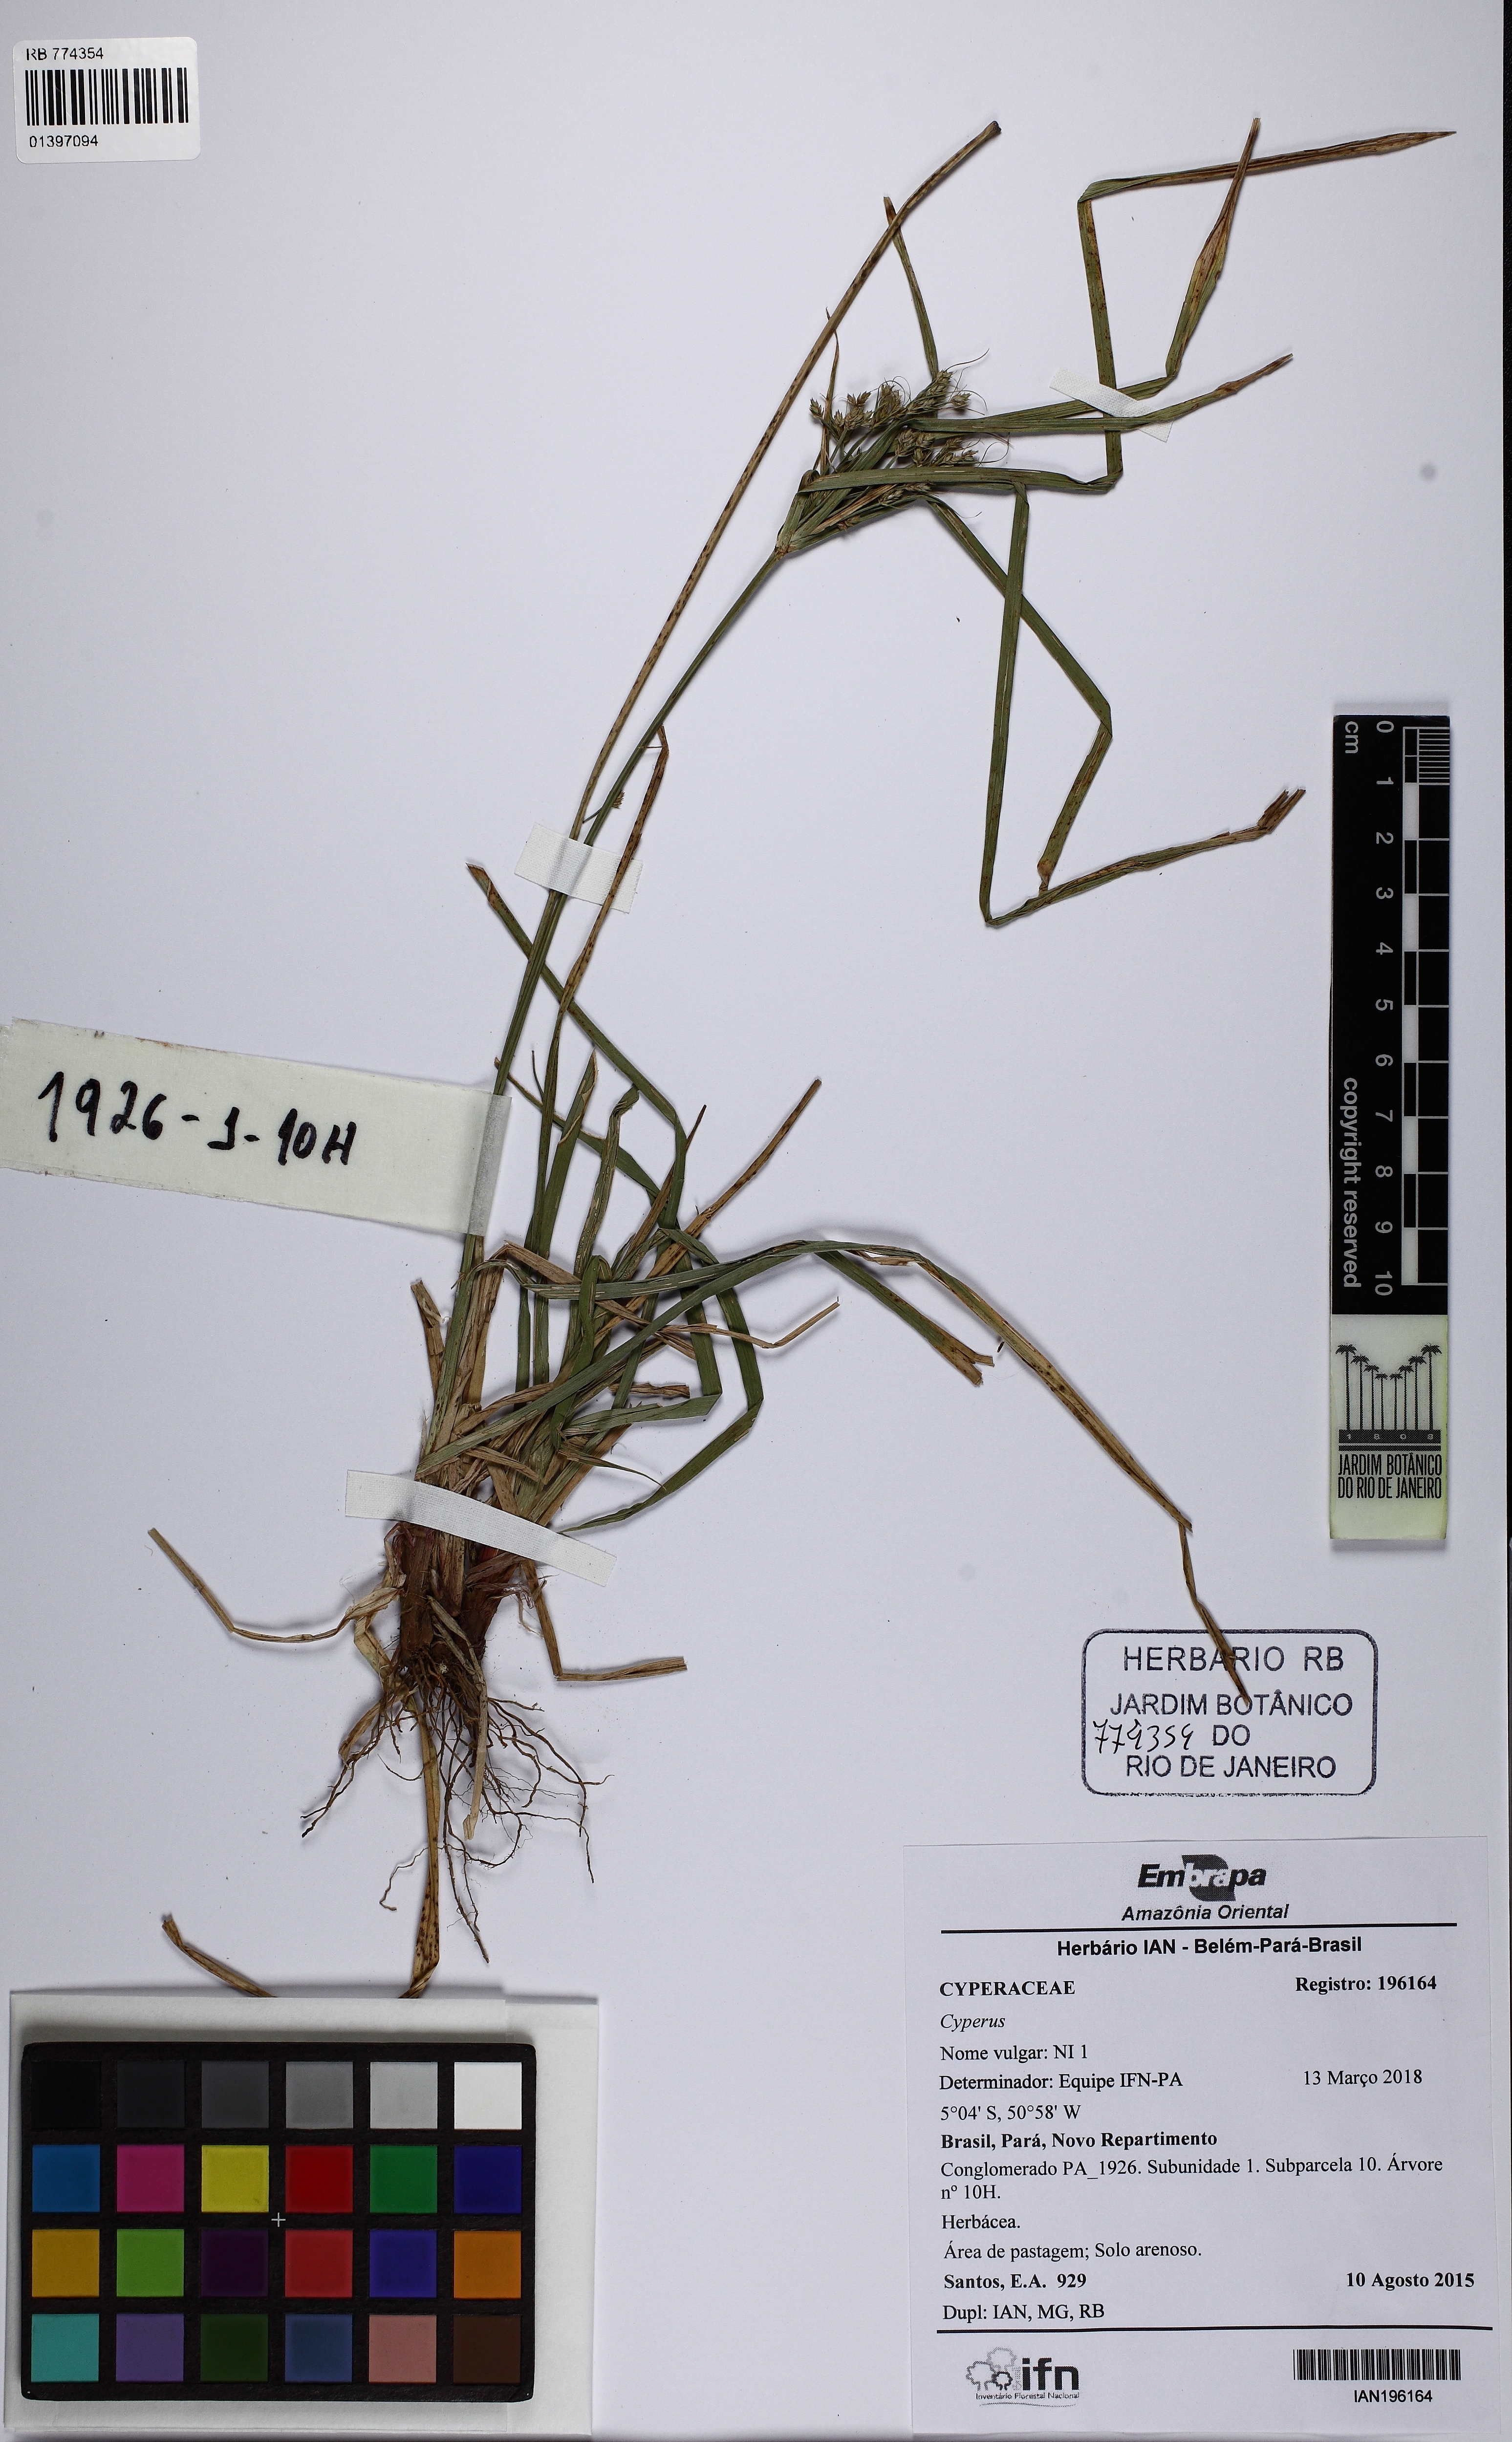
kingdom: Plantae
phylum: Tracheophyta
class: Liliopsida
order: Poales
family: Cyperaceae
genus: Cyperus
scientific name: Cyperus laxus
